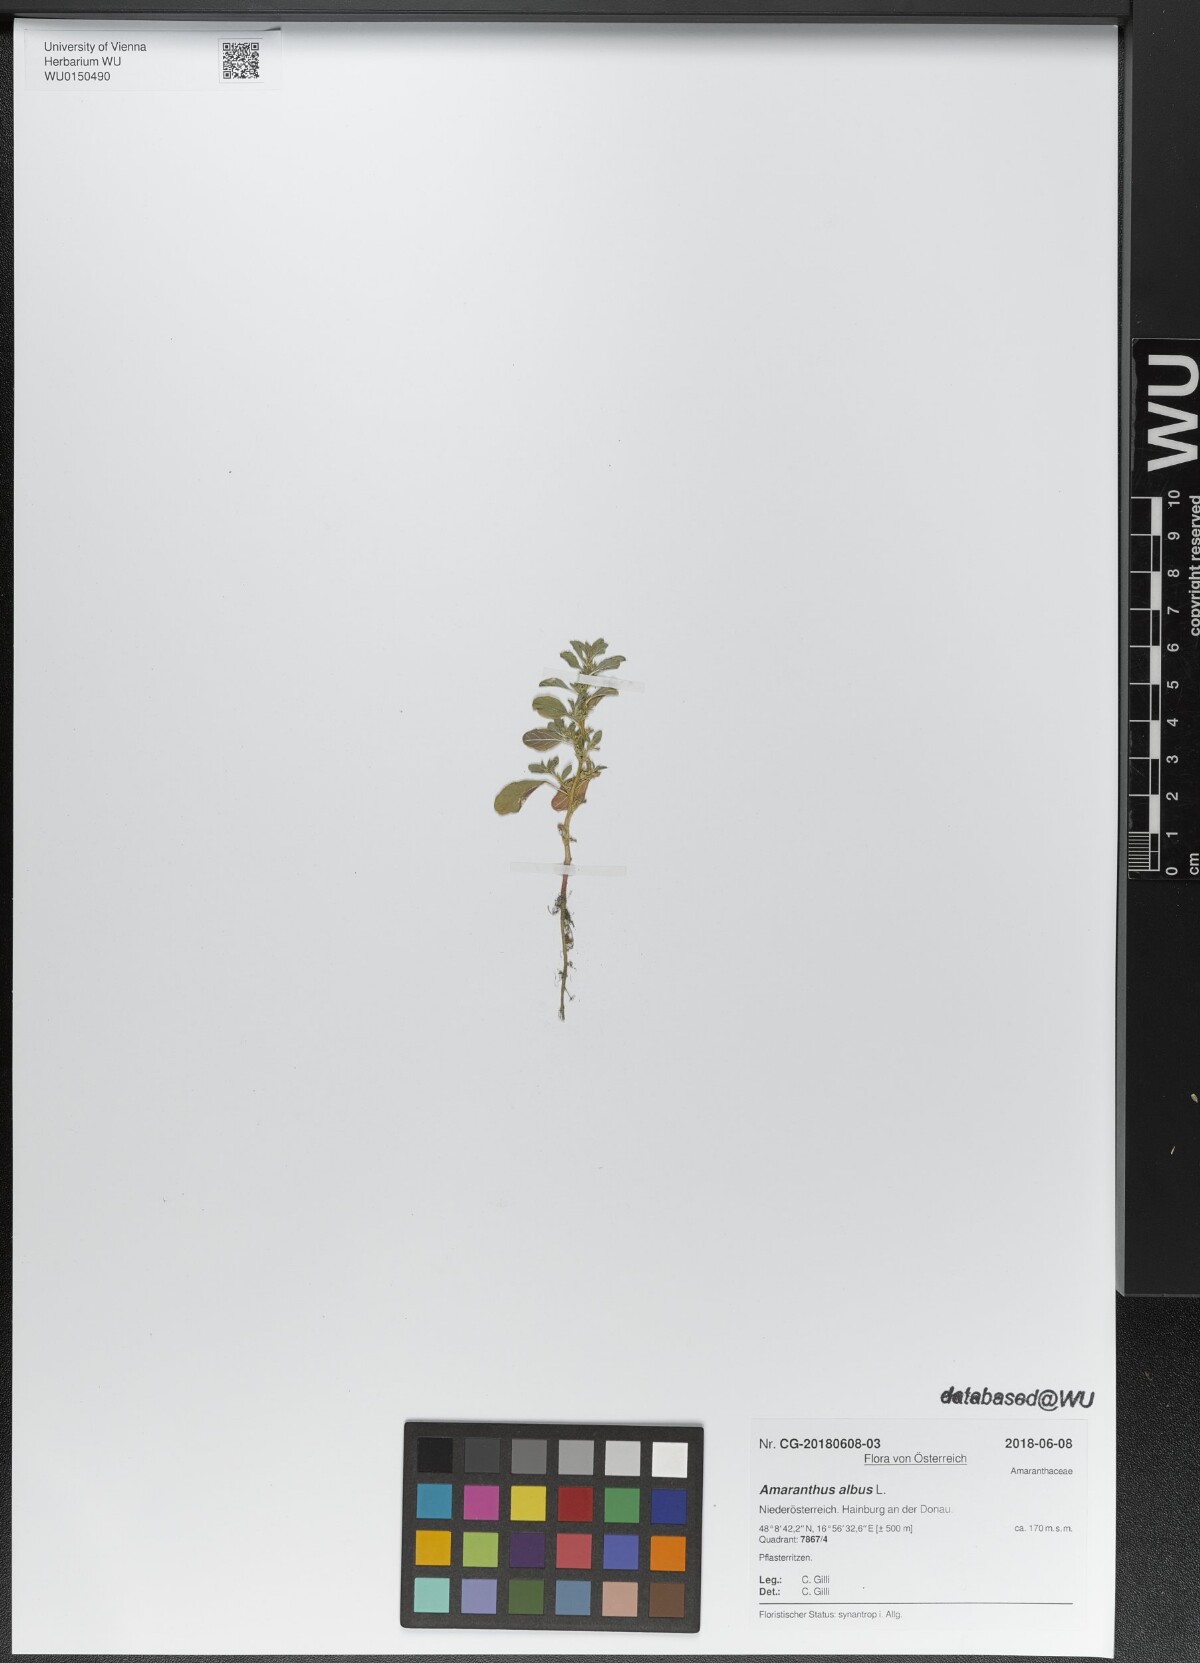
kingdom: Plantae
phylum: Tracheophyta
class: Magnoliopsida
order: Caryophyllales
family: Amaranthaceae
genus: Amaranthus
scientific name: Amaranthus albus
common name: White pigweed
